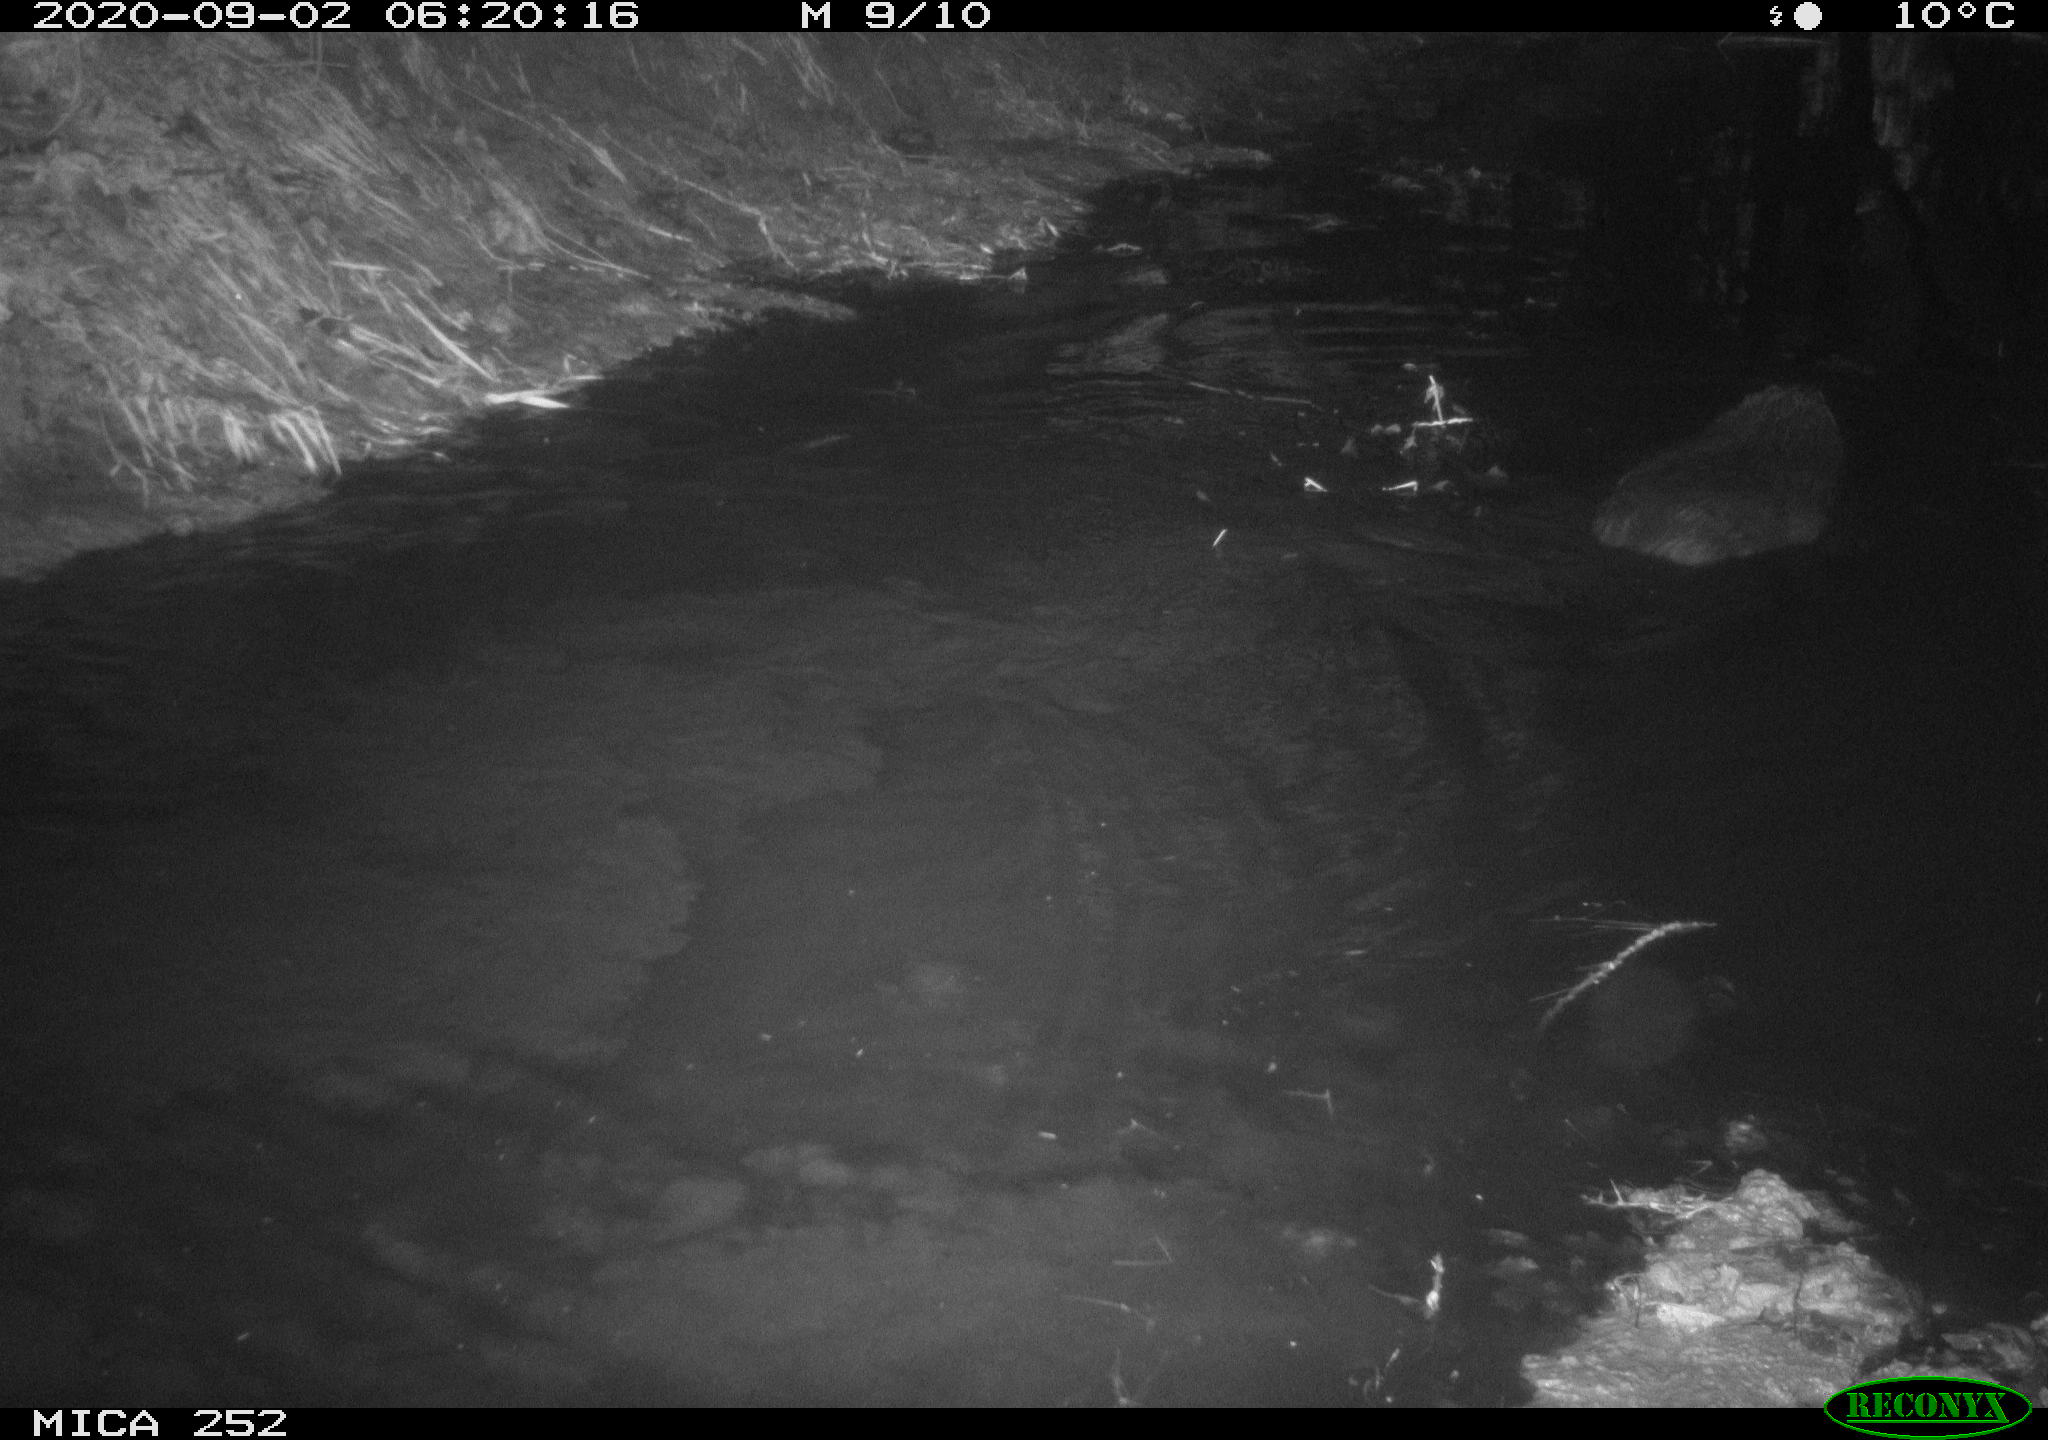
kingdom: Animalia
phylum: Chordata
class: Mammalia
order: Rodentia
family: Castoridae
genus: Castor
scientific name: Castor fiber
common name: Eurasian beaver
